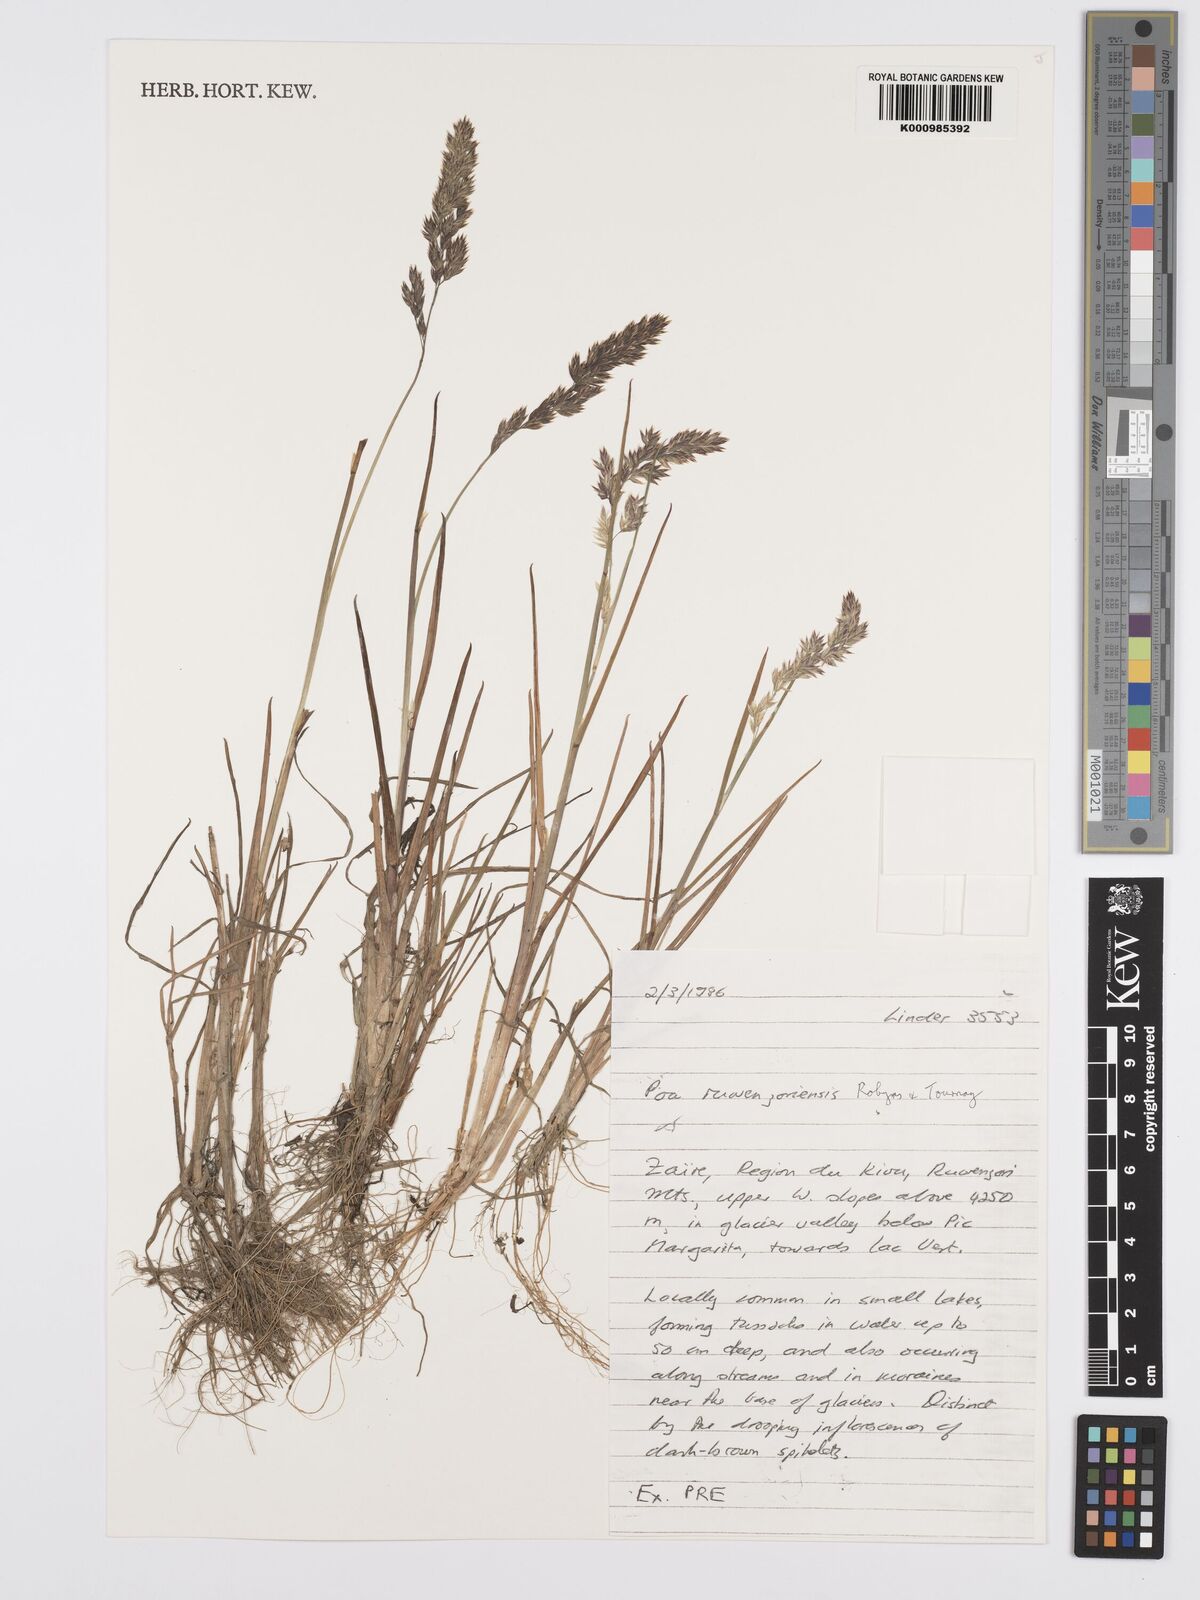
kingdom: Plantae
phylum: Tracheophyta
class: Liliopsida
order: Poales
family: Poaceae
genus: Poa
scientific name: Poa ruwenzoriensis
